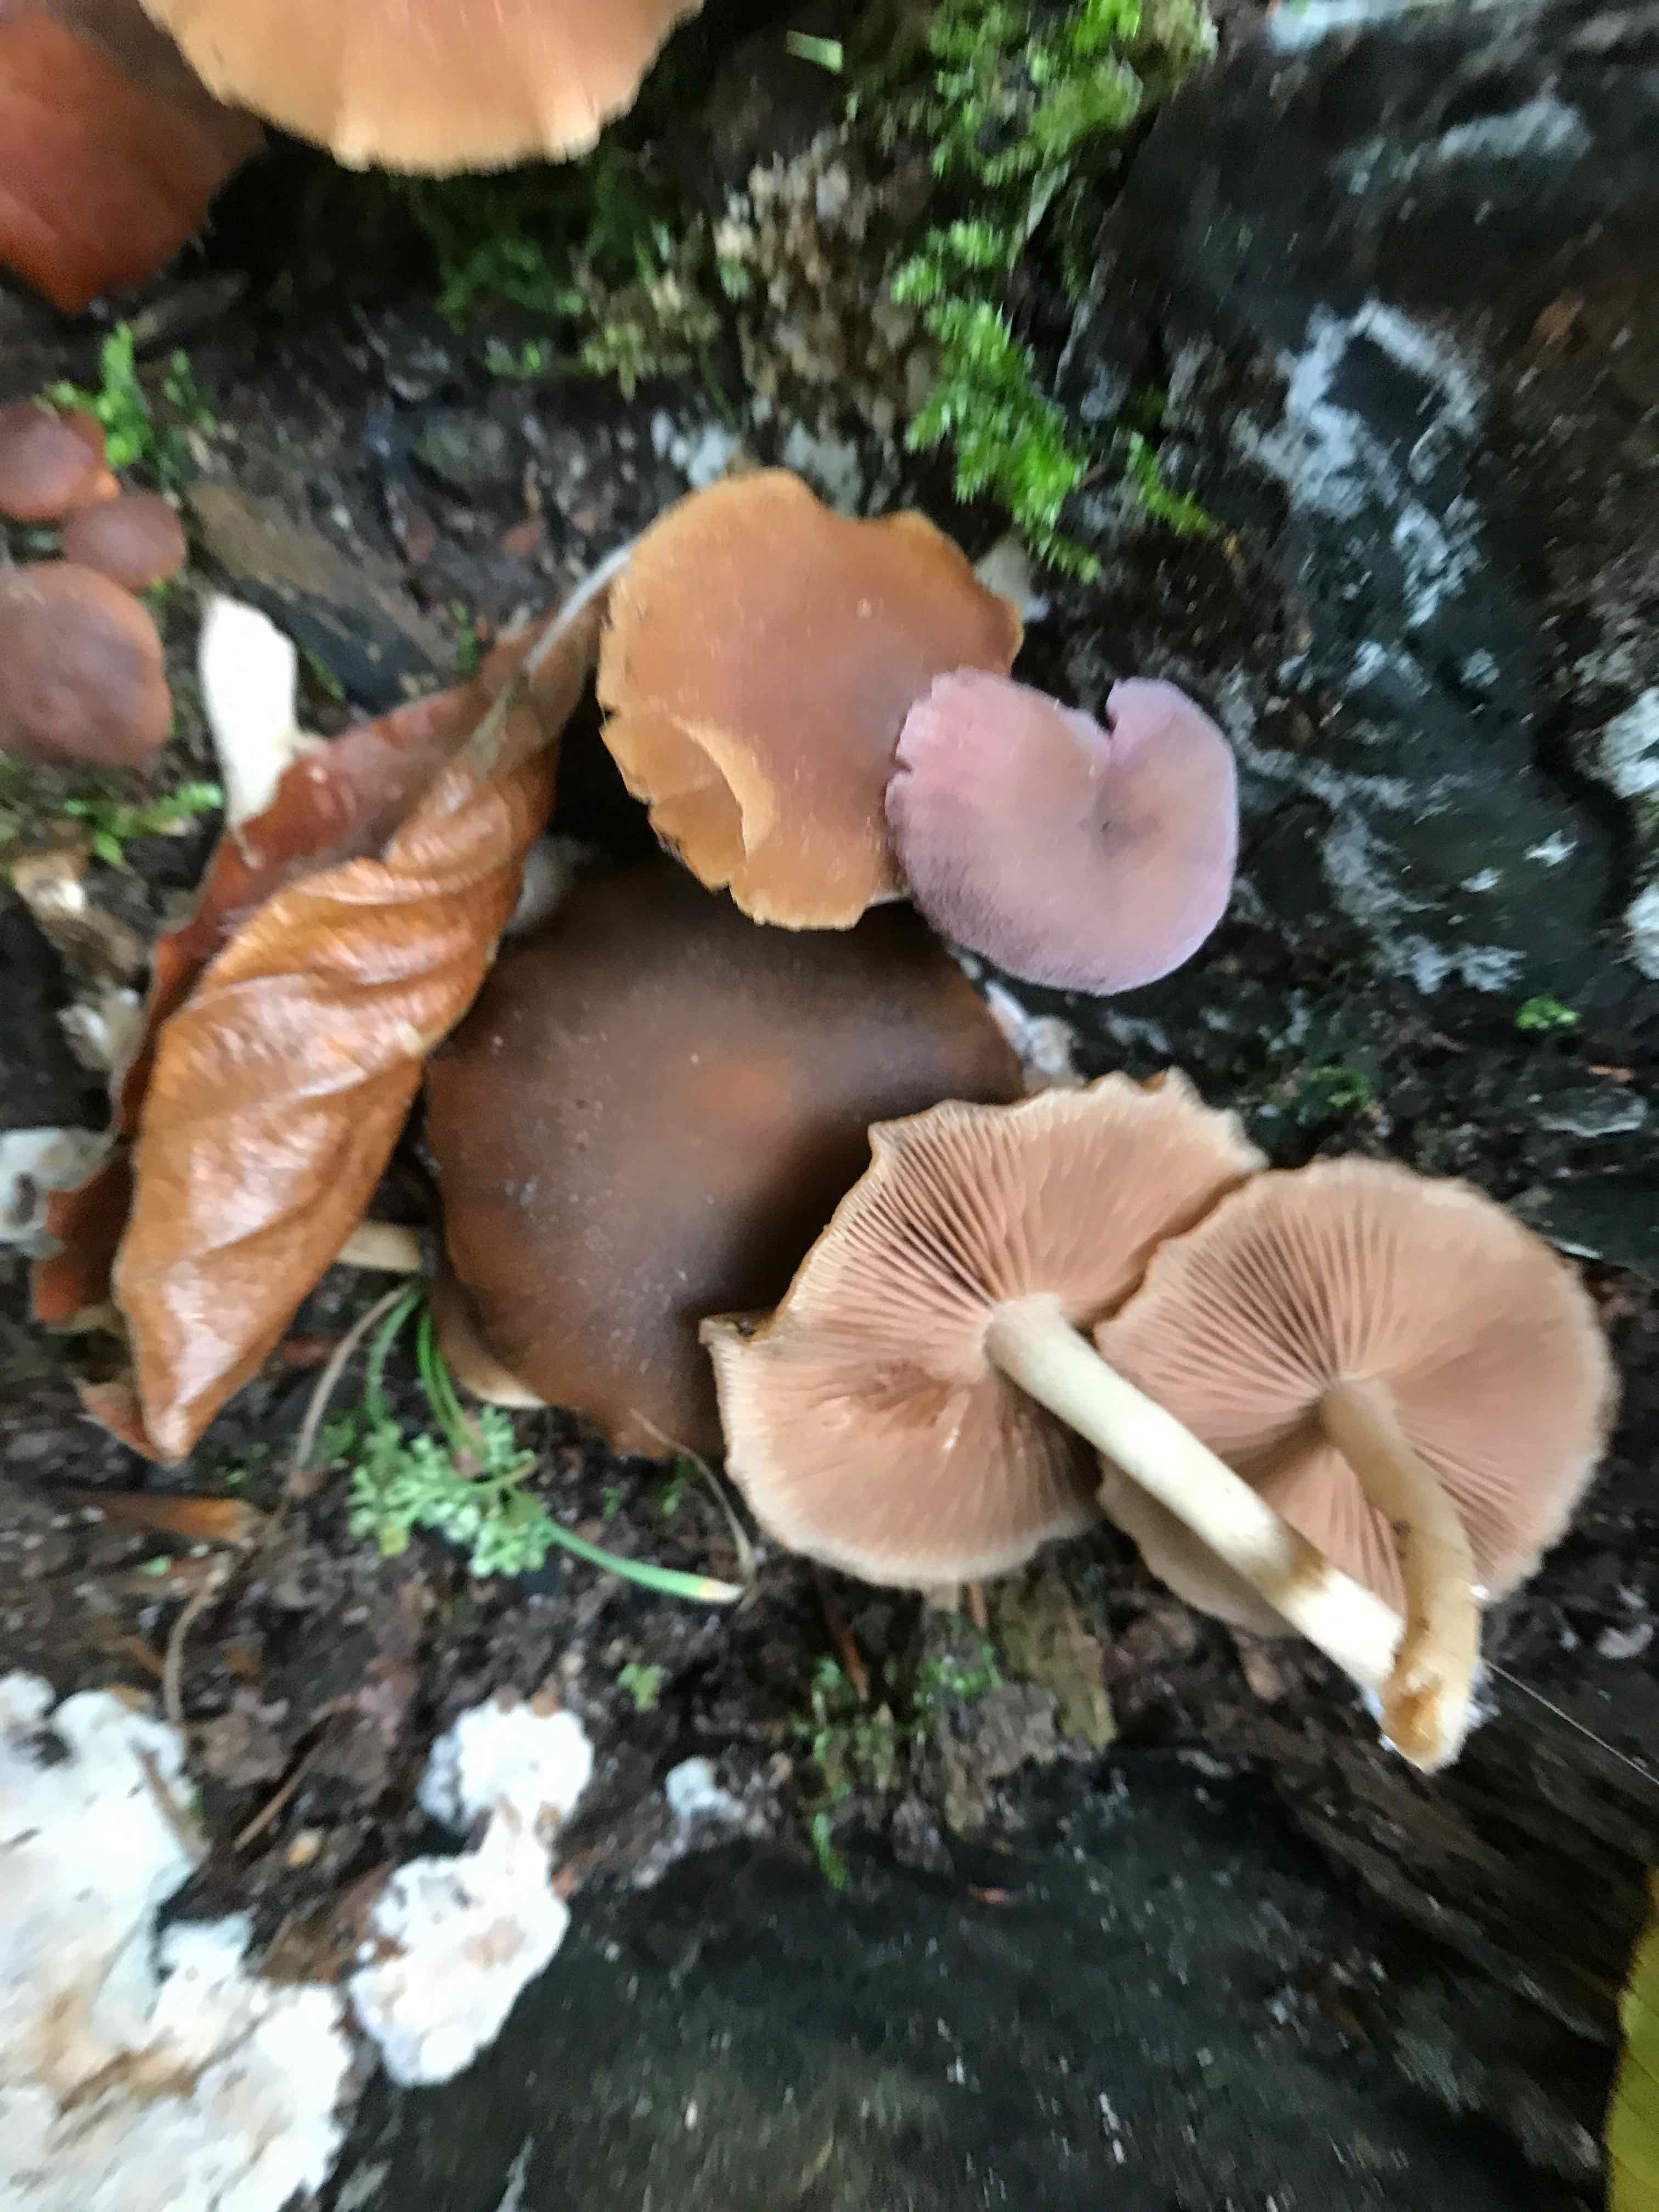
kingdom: Fungi
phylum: Basidiomycota
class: Agaricomycetes
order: Agaricales
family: Psathyrellaceae
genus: Psathyrella
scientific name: Psathyrella piluliformis
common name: lysstokket mørkhat
